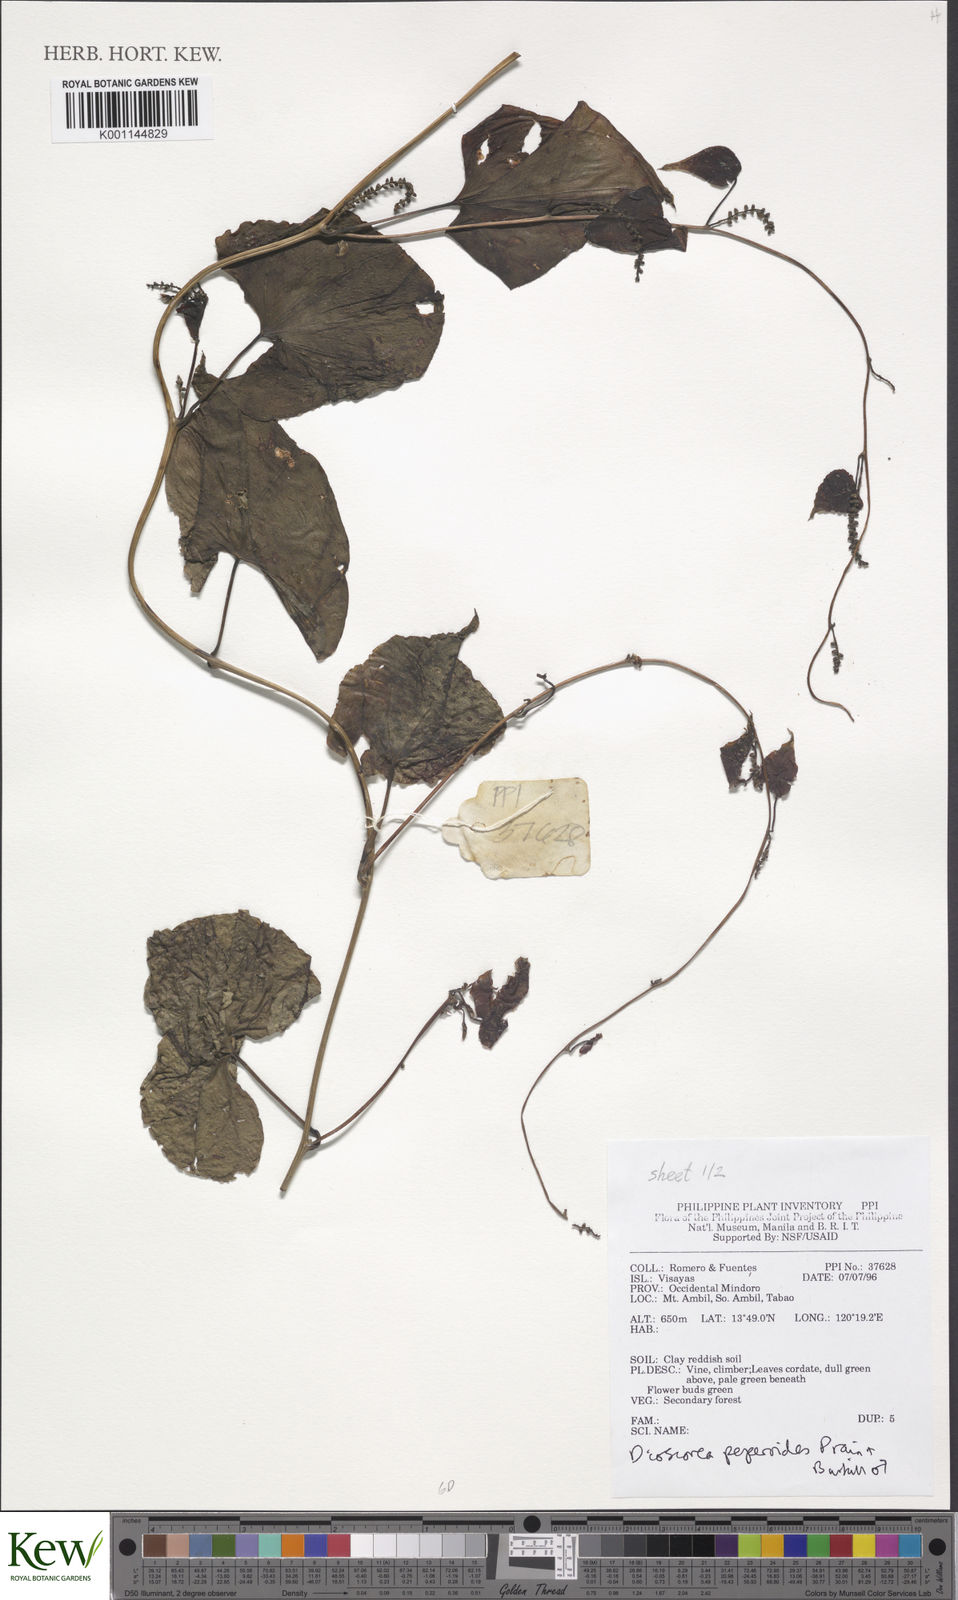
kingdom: Plantae
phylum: Tracheophyta
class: Liliopsida
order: Dioscoreales
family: Dioscoreaceae
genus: Dioscorea
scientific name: Dioscorea peperoides
